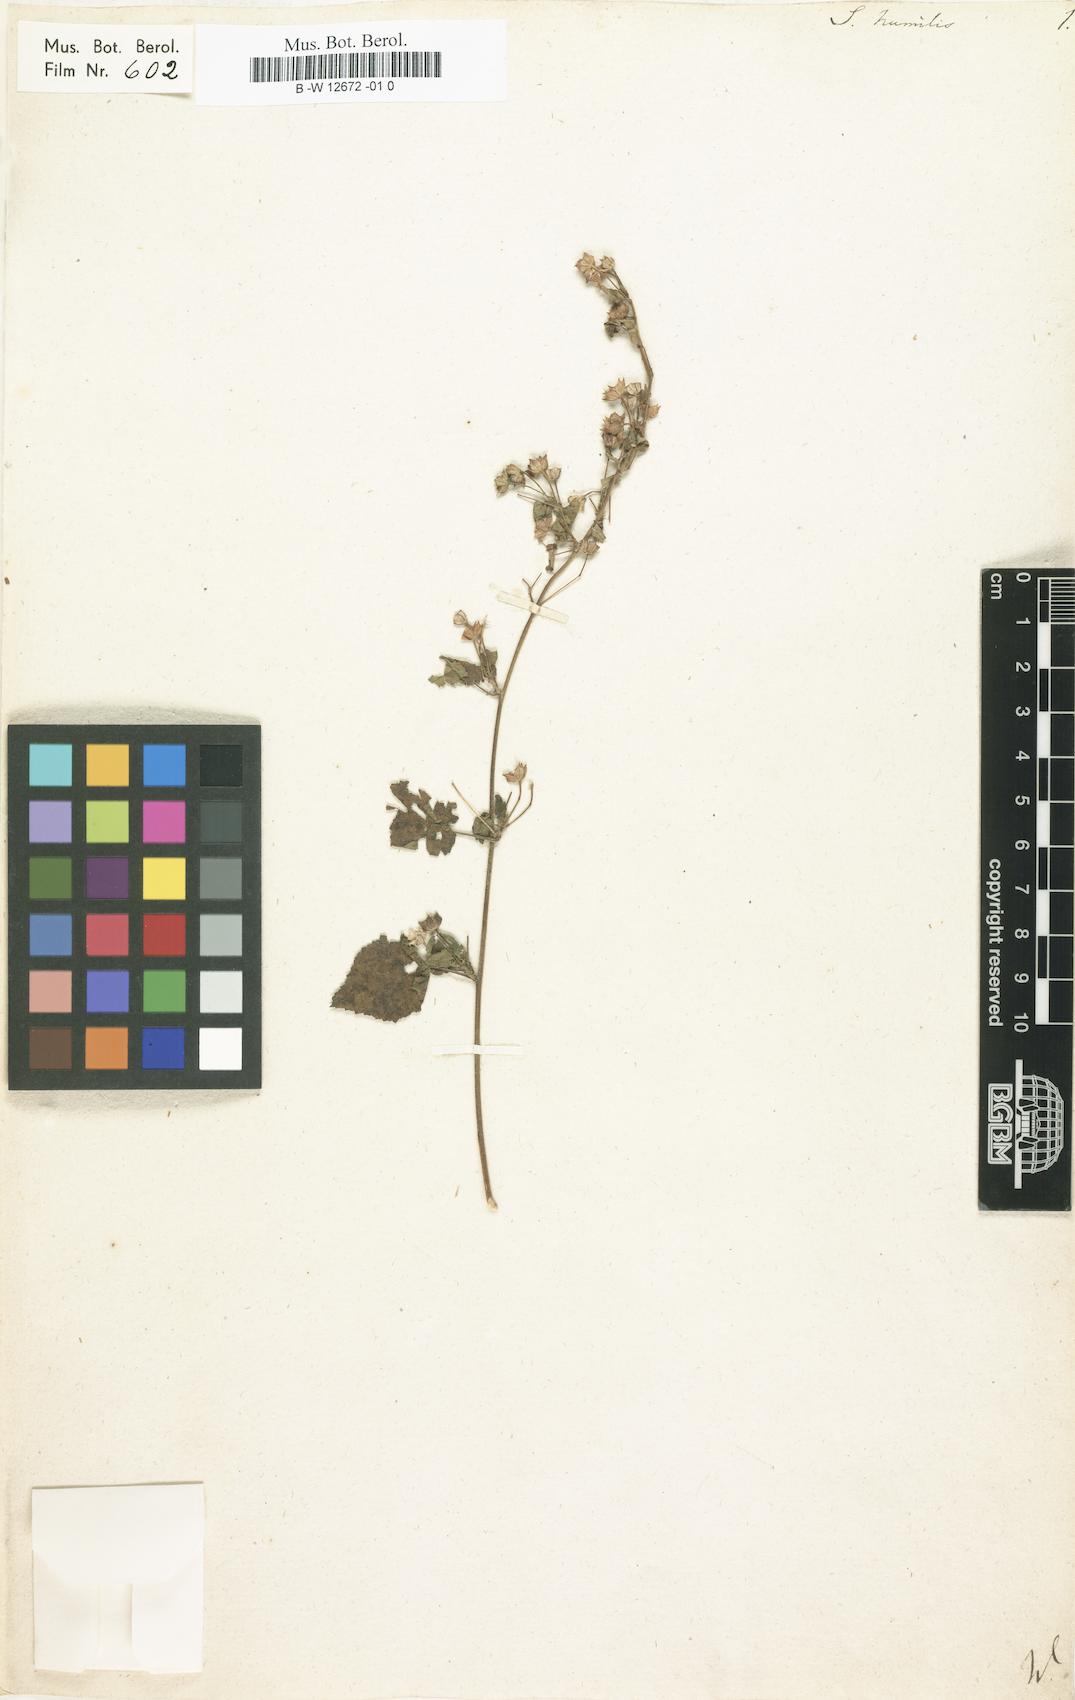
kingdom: Plantae
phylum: Tracheophyta
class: Magnoliopsida
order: Malvales
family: Malvaceae
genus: Sida
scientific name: Sida cordata
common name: Long-stalk sida
